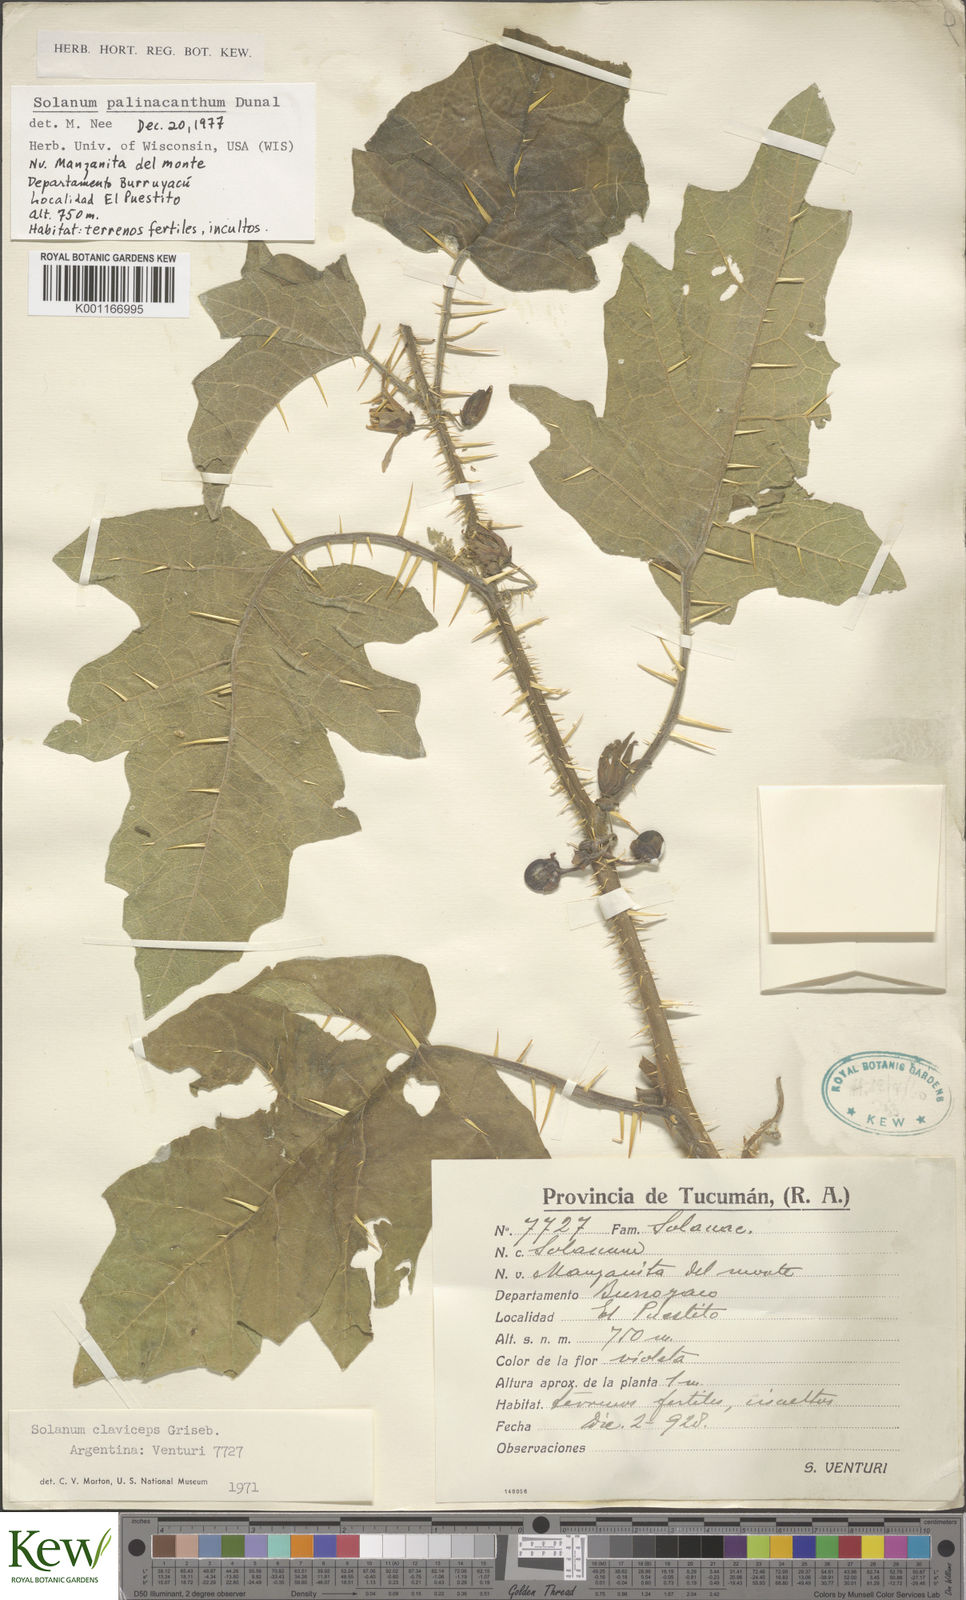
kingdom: Plantae
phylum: Tracheophyta
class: Magnoliopsida
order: Solanales
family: Solanaceae
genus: Solanum
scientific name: Solanum palinacanthum
